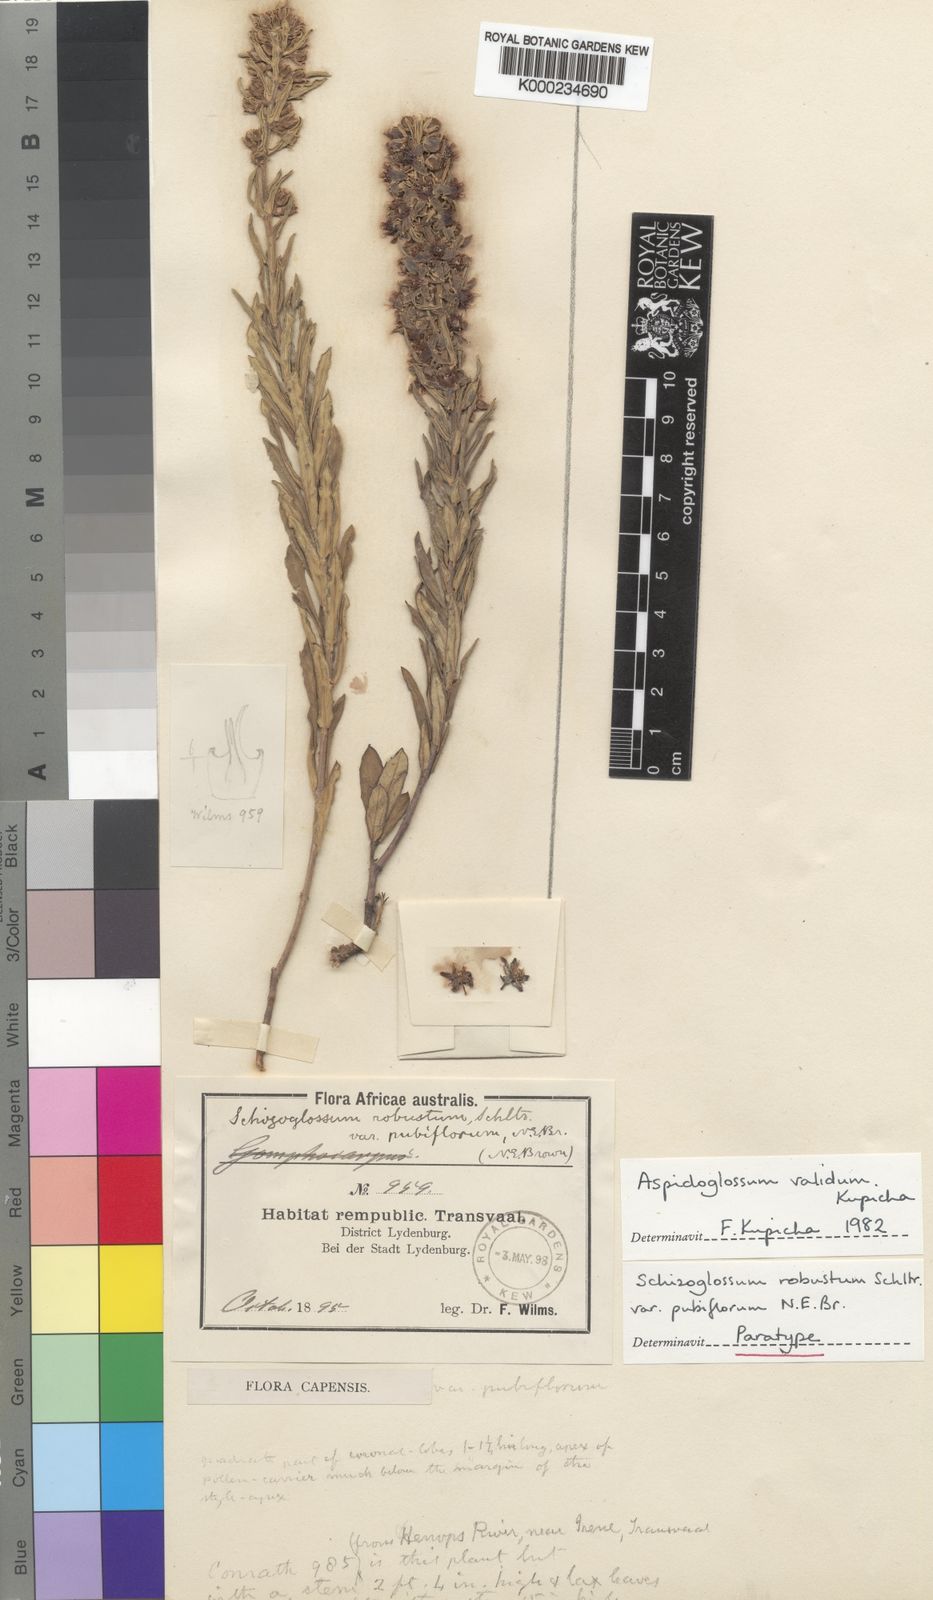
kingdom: Plantae
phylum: Tracheophyta
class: Magnoliopsida
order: Gentianales
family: Apocynaceae
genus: Aspidoglossum
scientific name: Aspidoglossum validum
